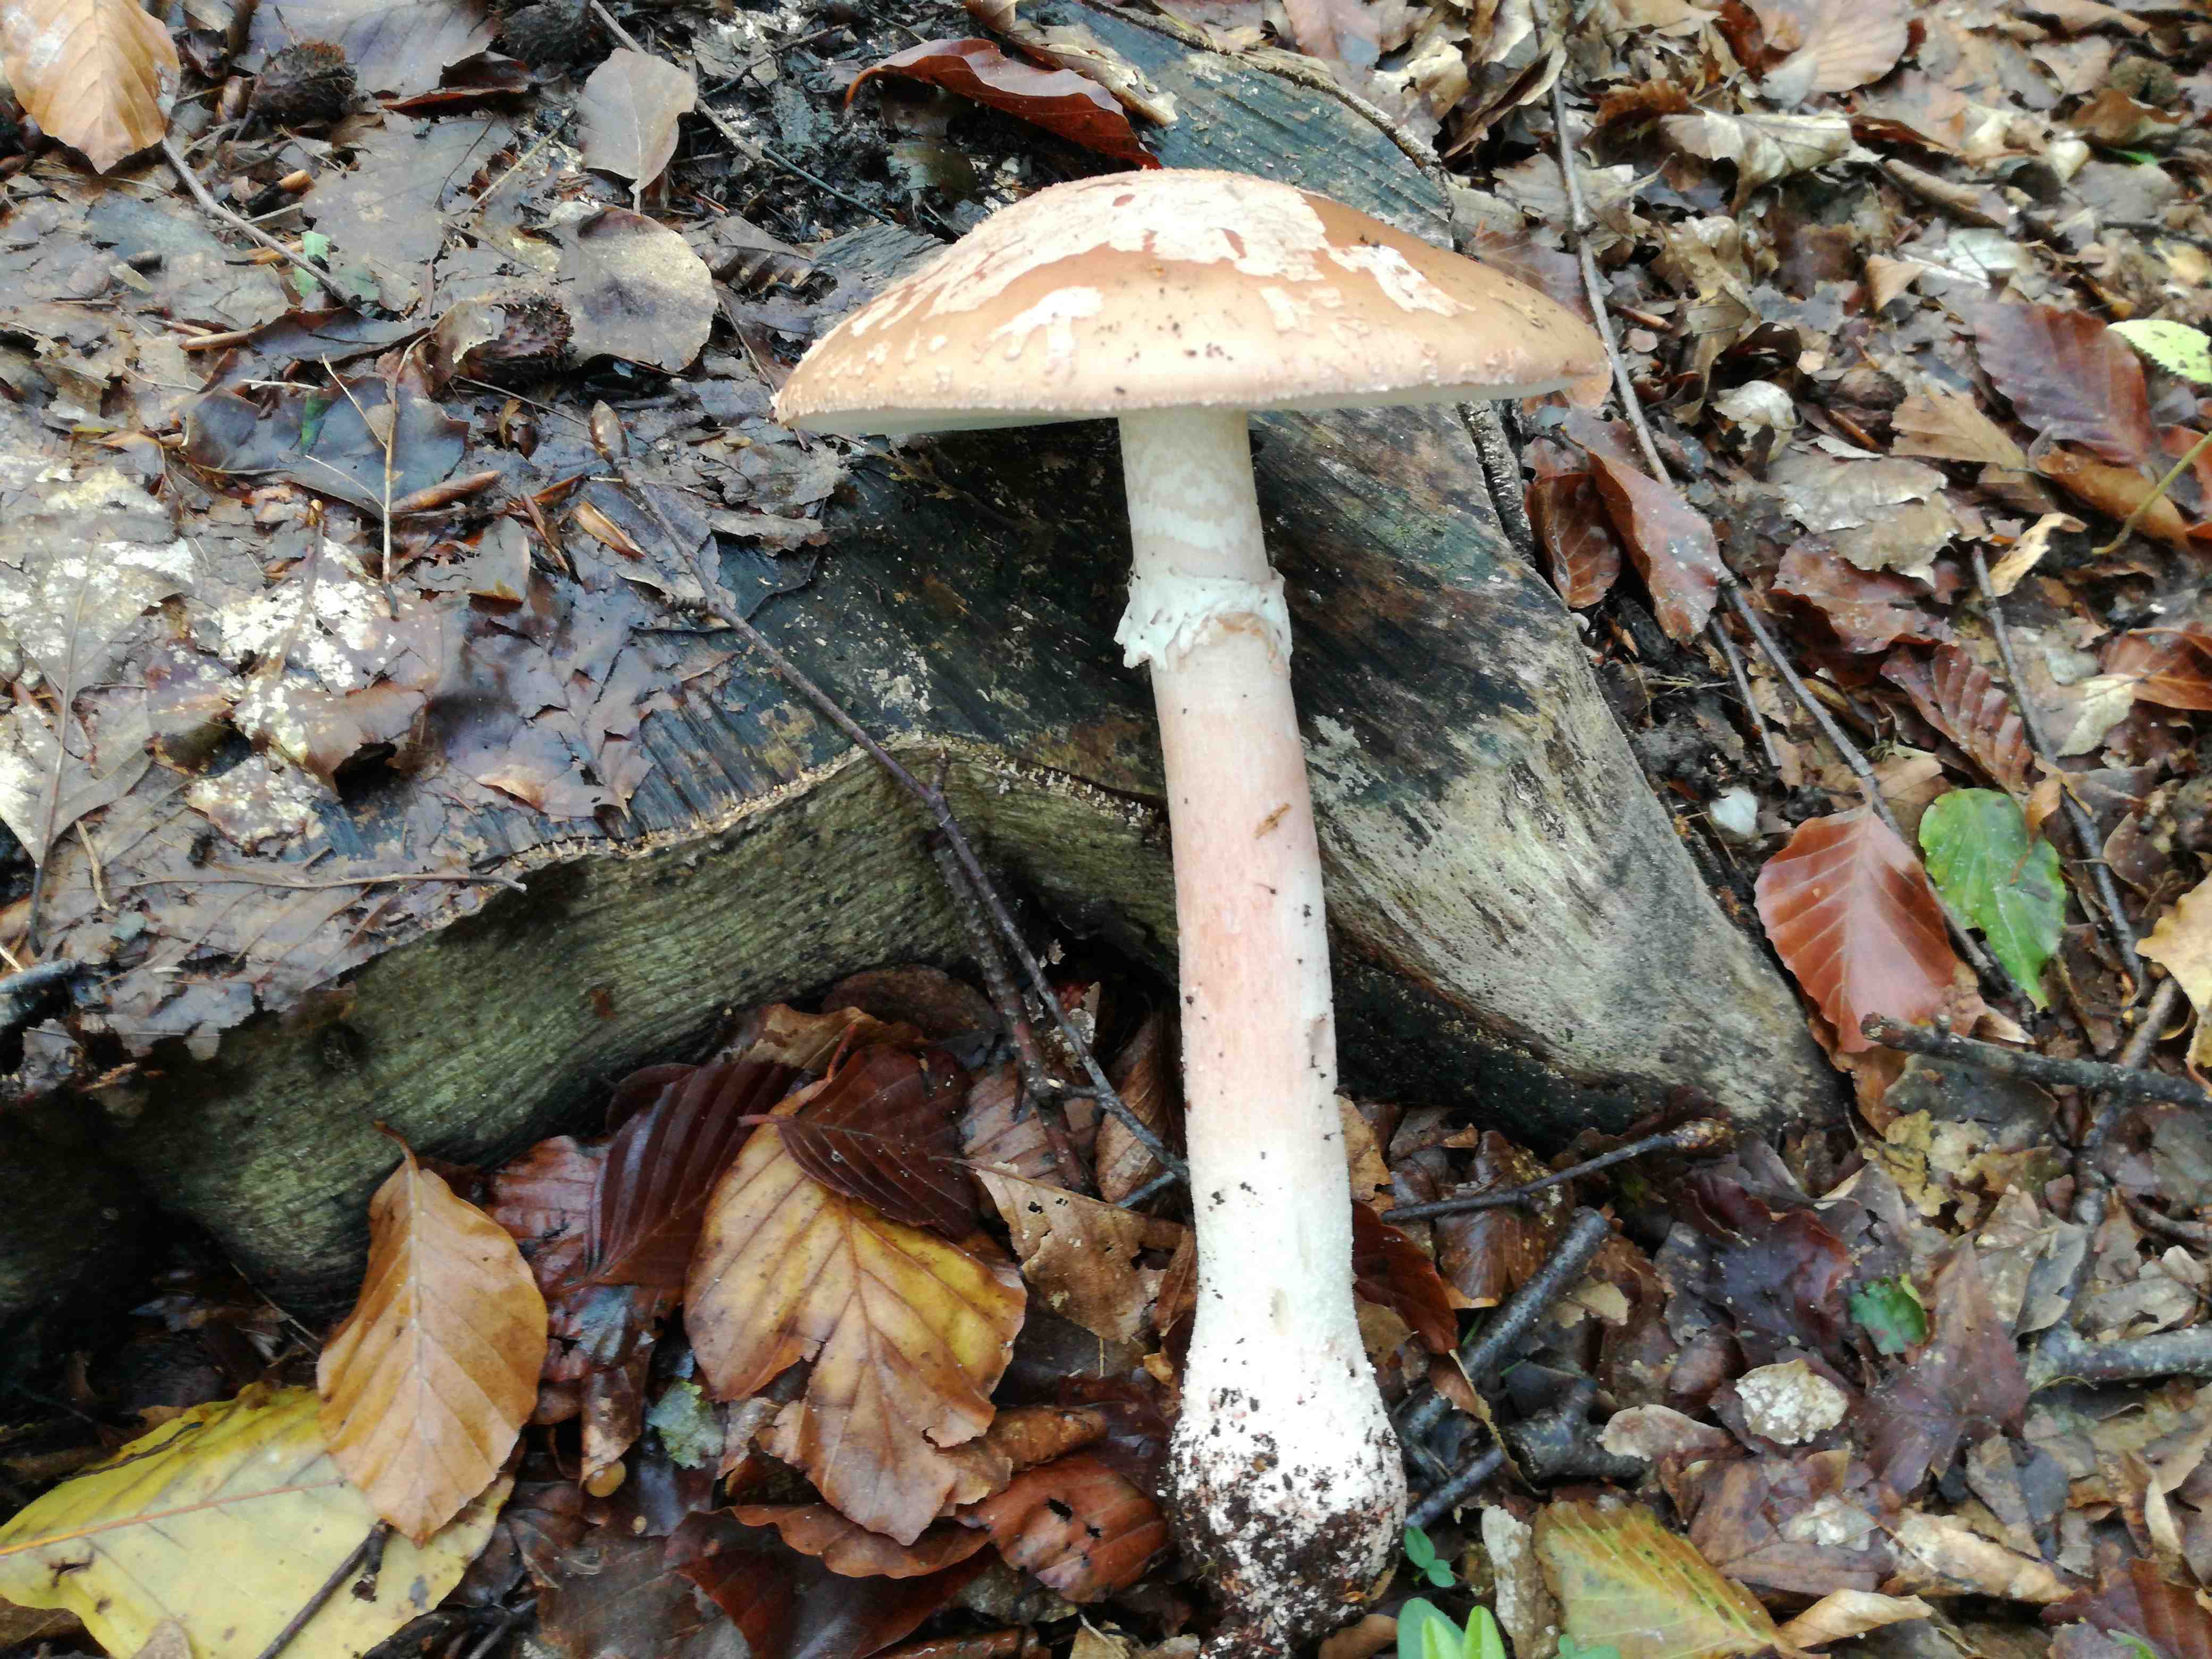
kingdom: Fungi
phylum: Basidiomycota
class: Agaricomycetes
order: Agaricales
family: Amanitaceae
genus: Amanita
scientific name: Amanita rubescens
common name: rødmende fluesvamp
